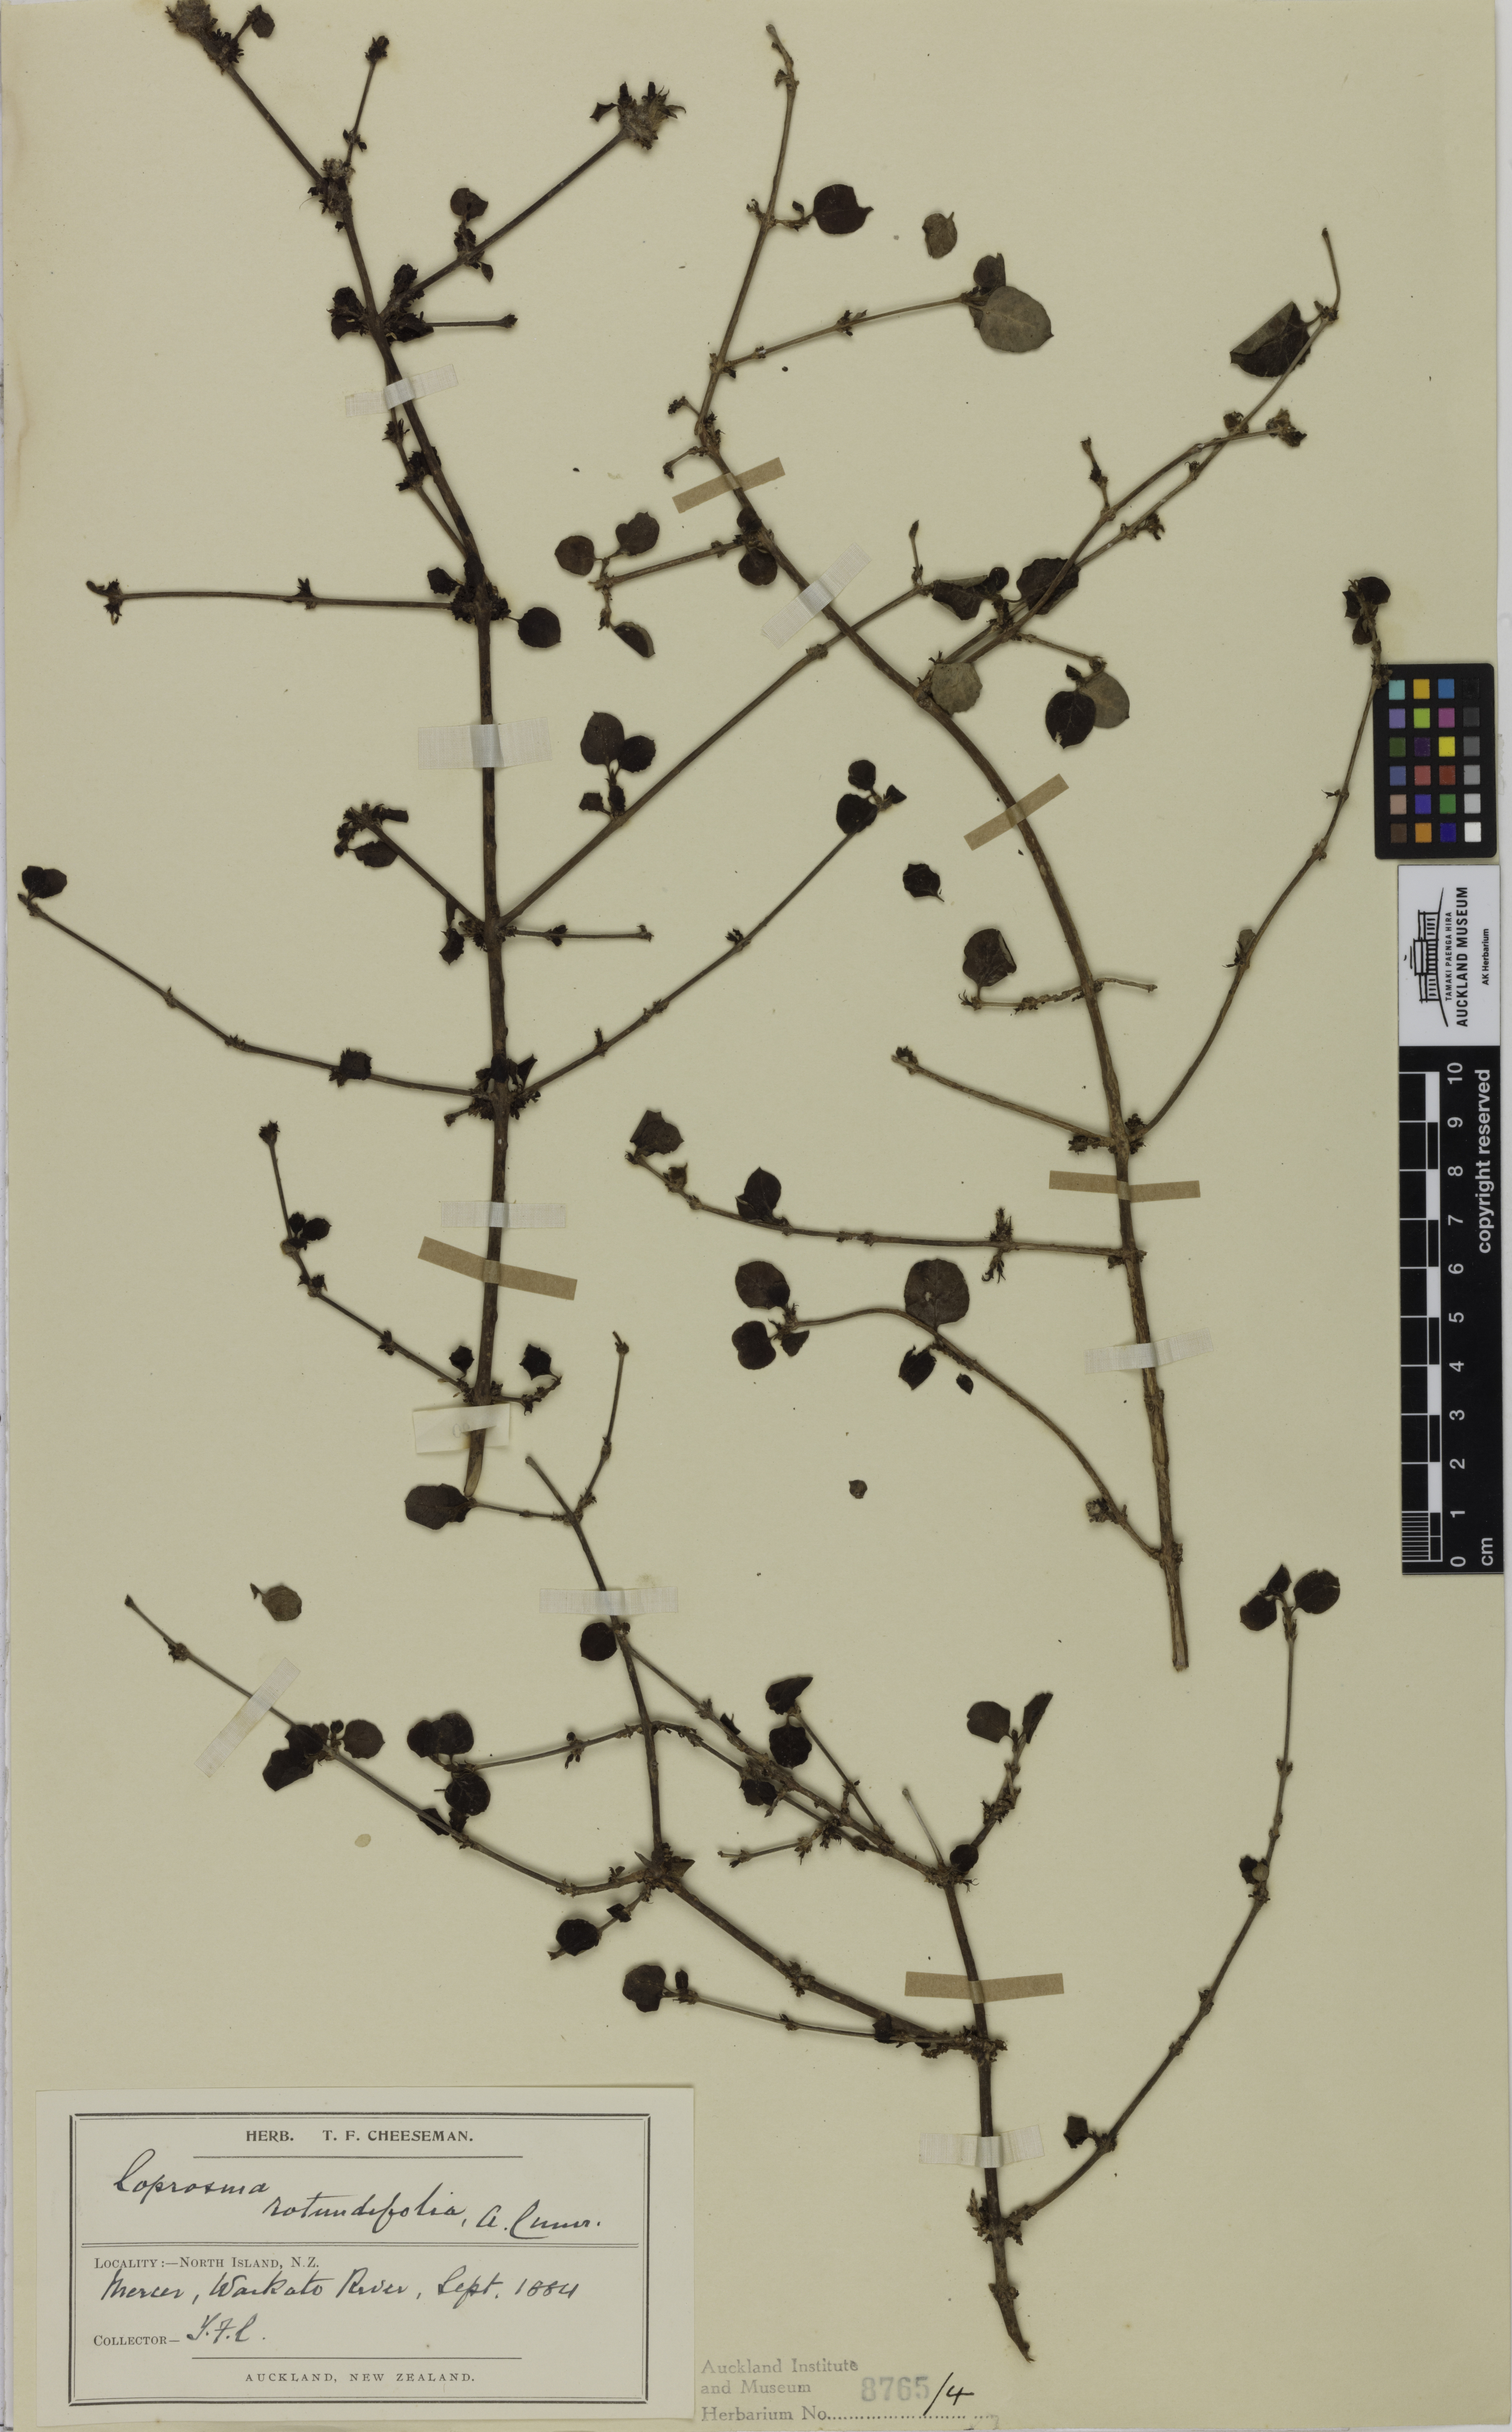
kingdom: Plantae
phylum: Tracheophyta
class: Magnoliopsida
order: Gentianales
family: Rubiaceae
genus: Coprosma
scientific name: Coprosma rotundifolia
